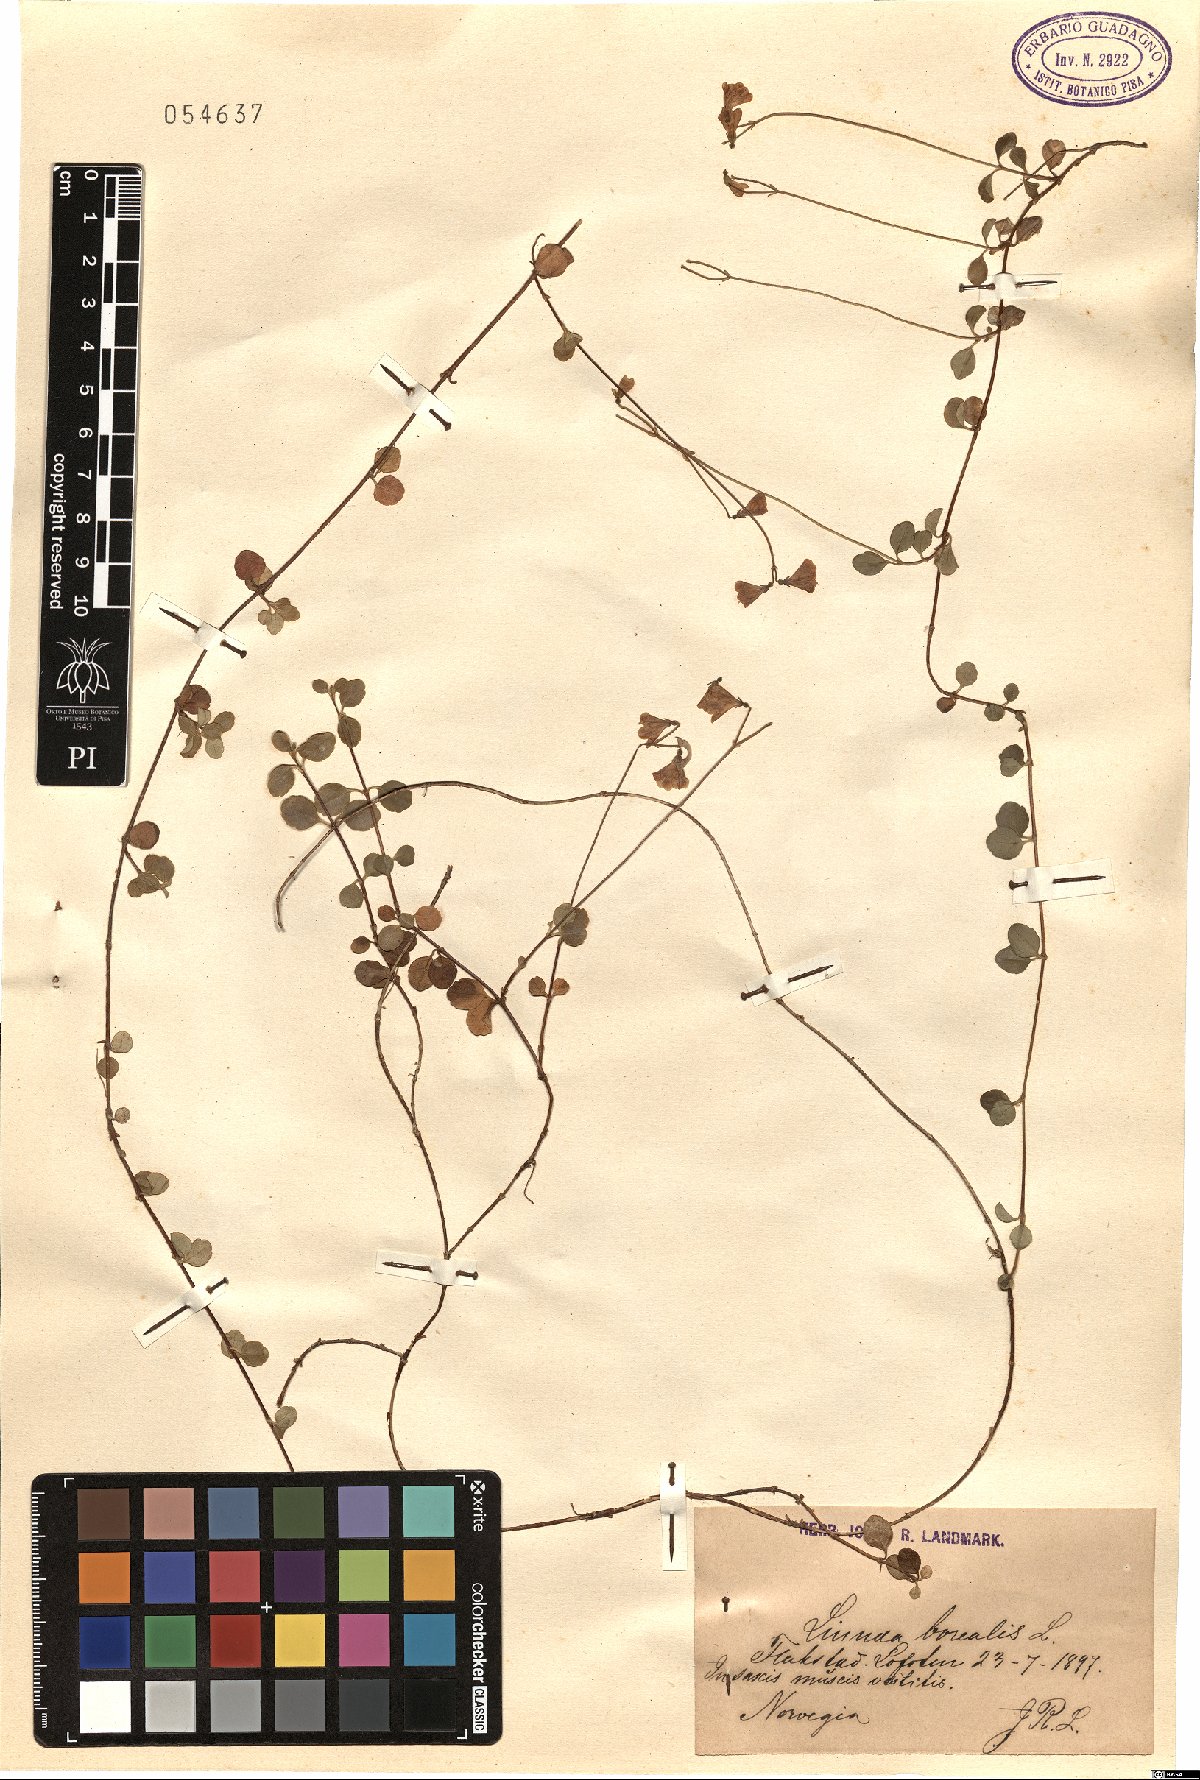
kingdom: Plantae
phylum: Tracheophyta
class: Magnoliopsida
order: Dipsacales
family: Caprifoliaceae
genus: Linnaea
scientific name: Linnaea borealis
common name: Twinflower
